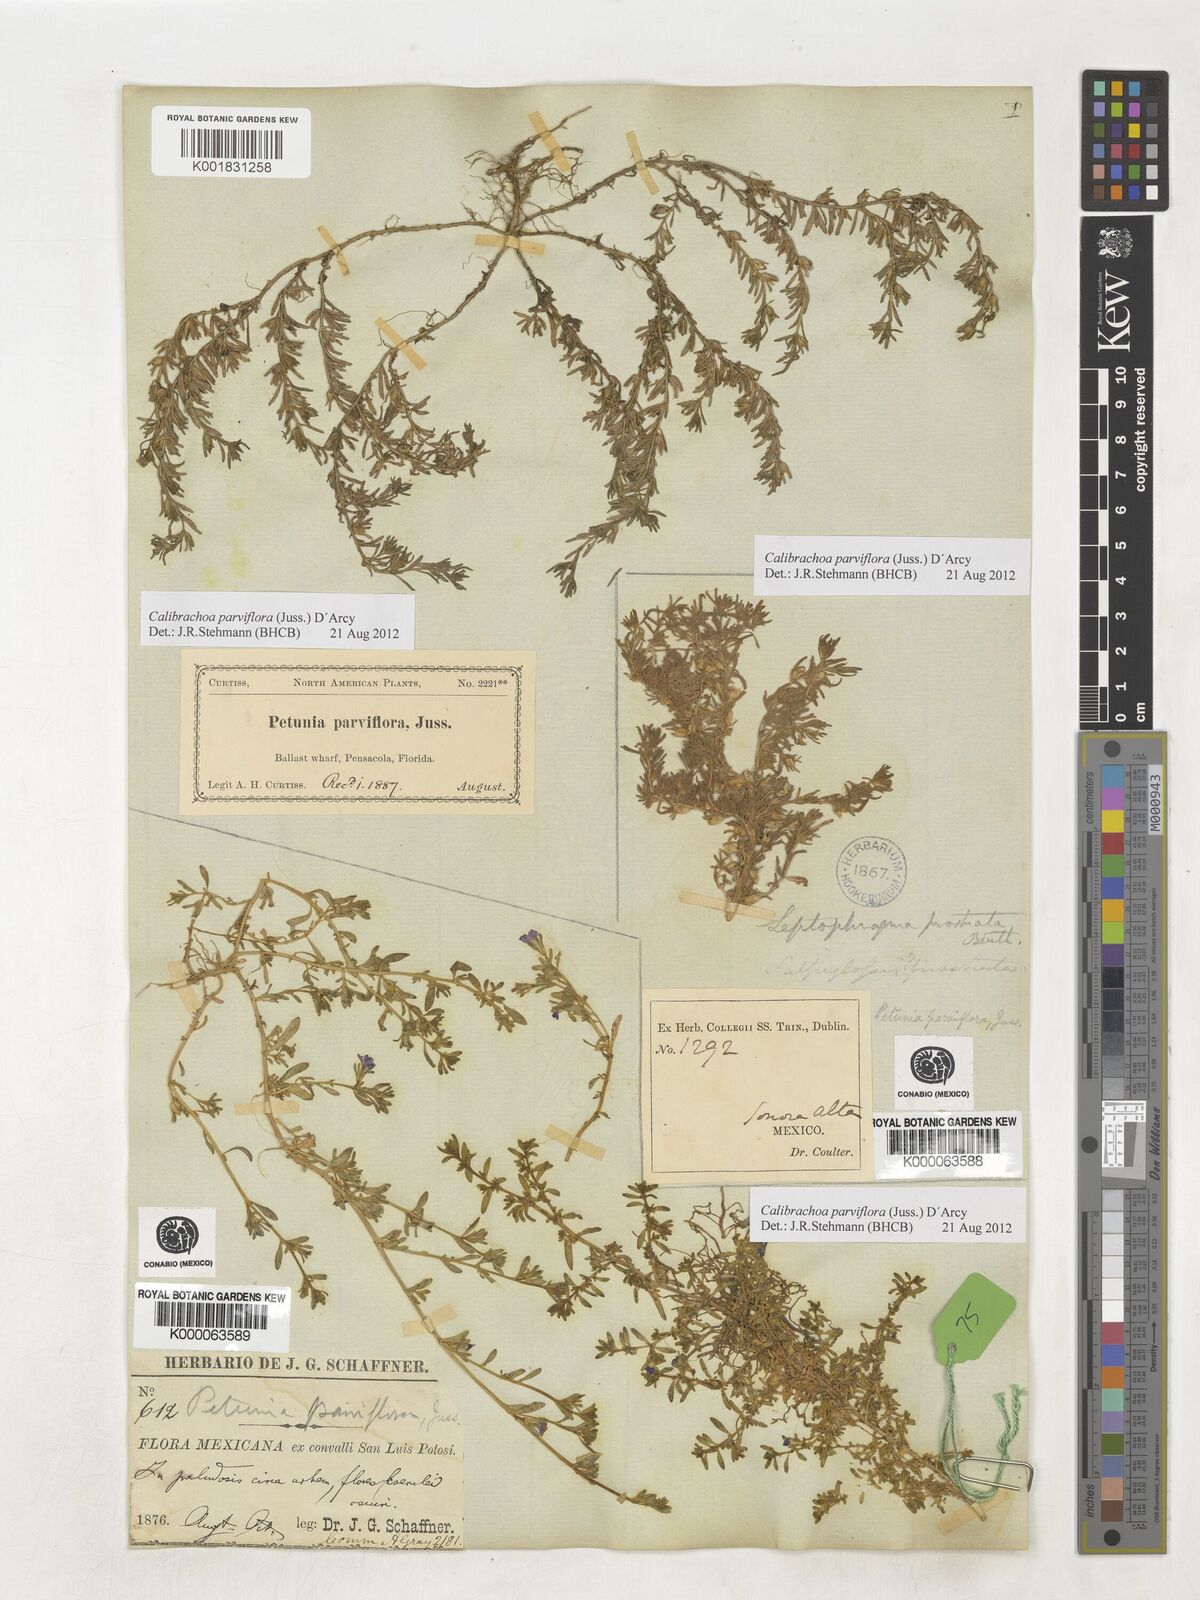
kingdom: Plantae
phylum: Tracheophyta
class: Magnoliopsida
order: Solanales
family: Solanaceae
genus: Calibrachoa
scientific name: Calibrachoa parviflora
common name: Seaside petunia
